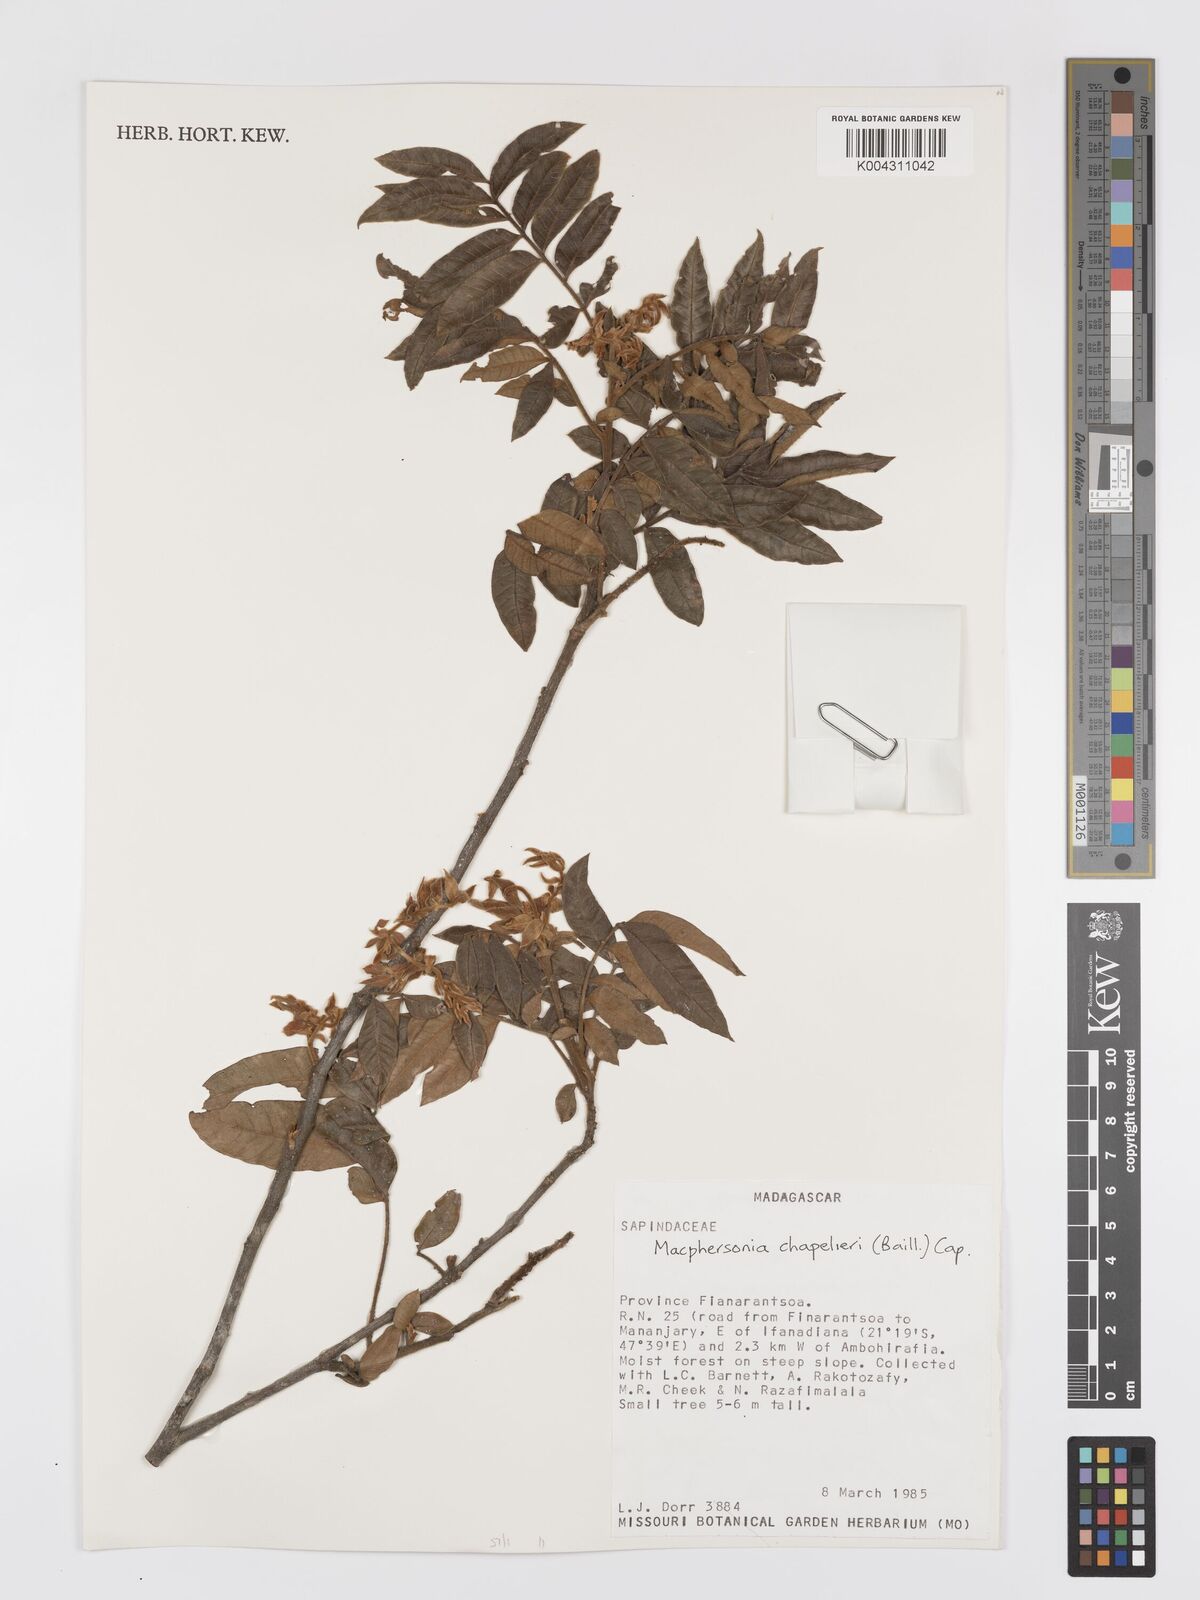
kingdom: Plantae
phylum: Tracheophyta
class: Magnoliopsida
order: Sapindales
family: Sapindaceae
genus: Macphersonia
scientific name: Macphersonia chapelieri
